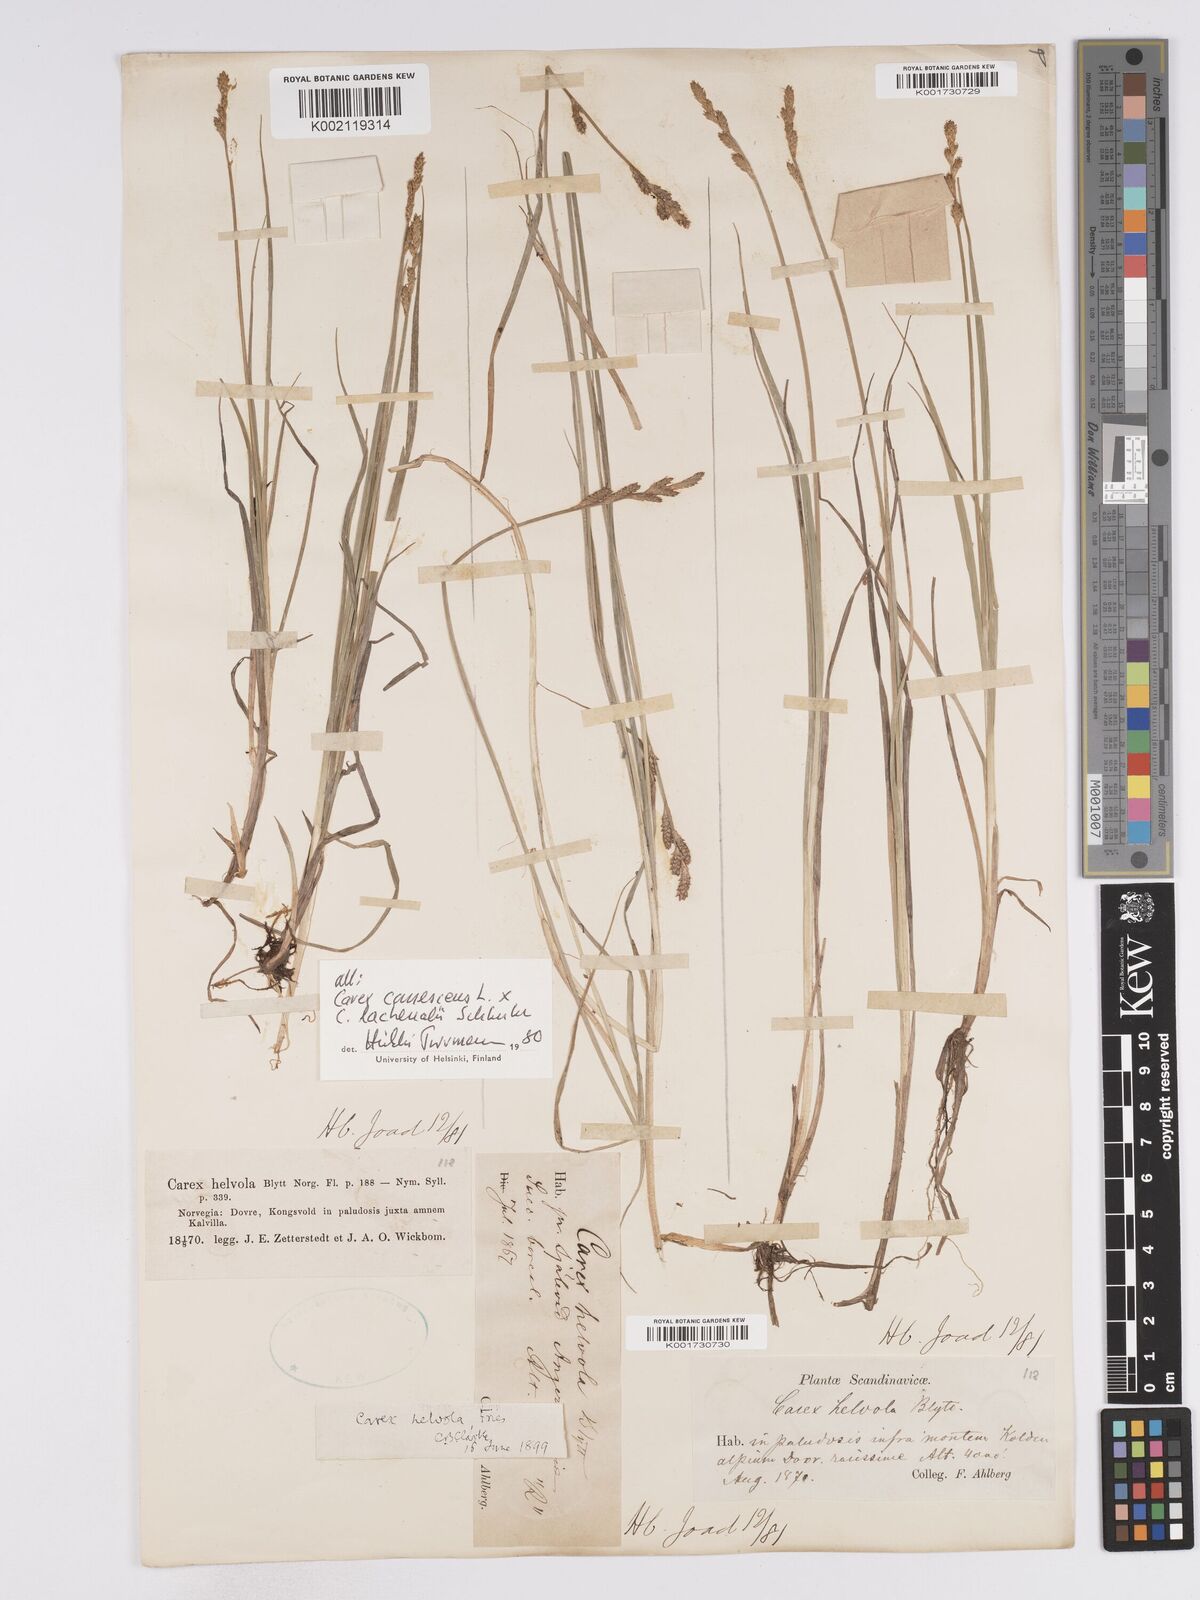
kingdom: Plantae
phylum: Tracheophyta
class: Liliopsida
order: Poales
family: Cyperaceae
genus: Carex
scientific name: Carex
